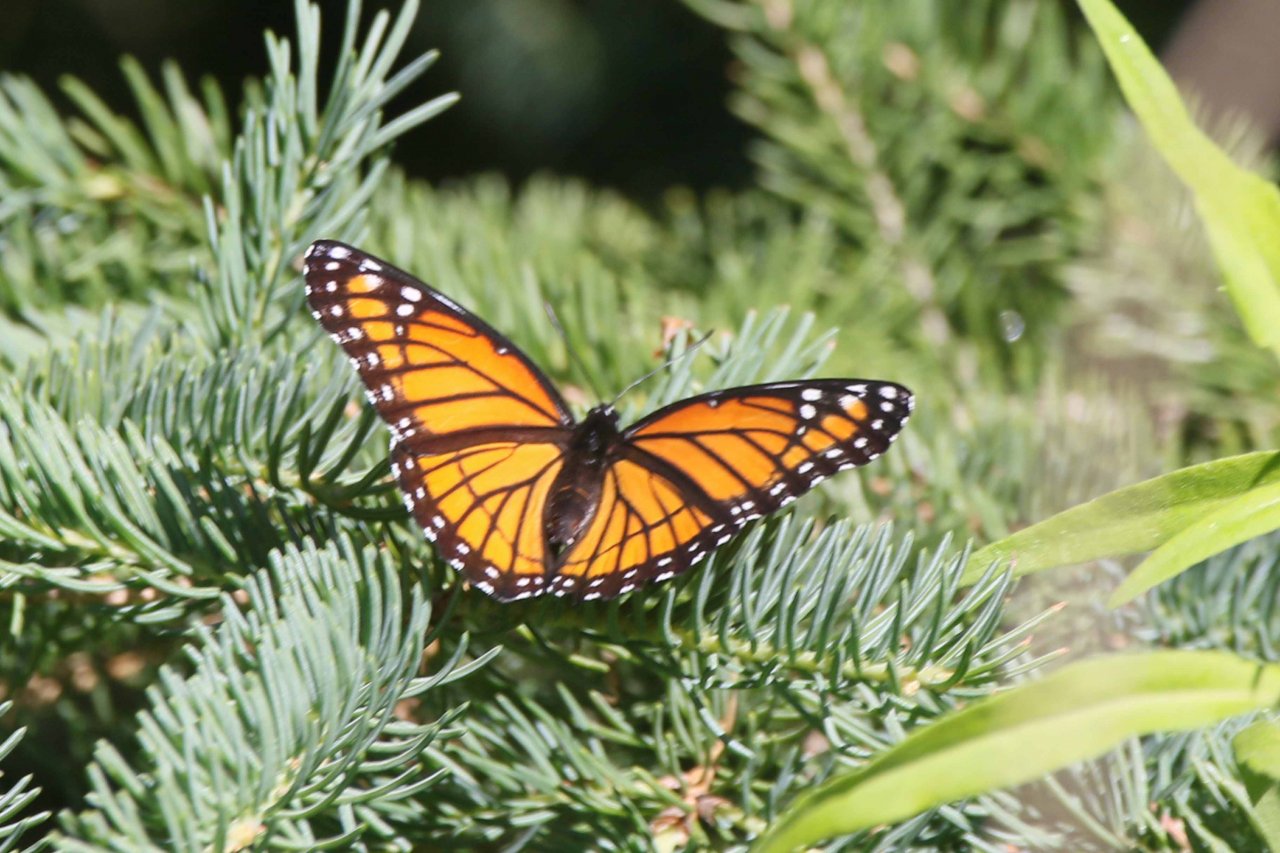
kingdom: Animalia
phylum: Arthropoda
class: Insecta
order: Lepidoptera
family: Nymphalidae
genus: Limenitis
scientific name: Limenitis archippus
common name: Viceroy
